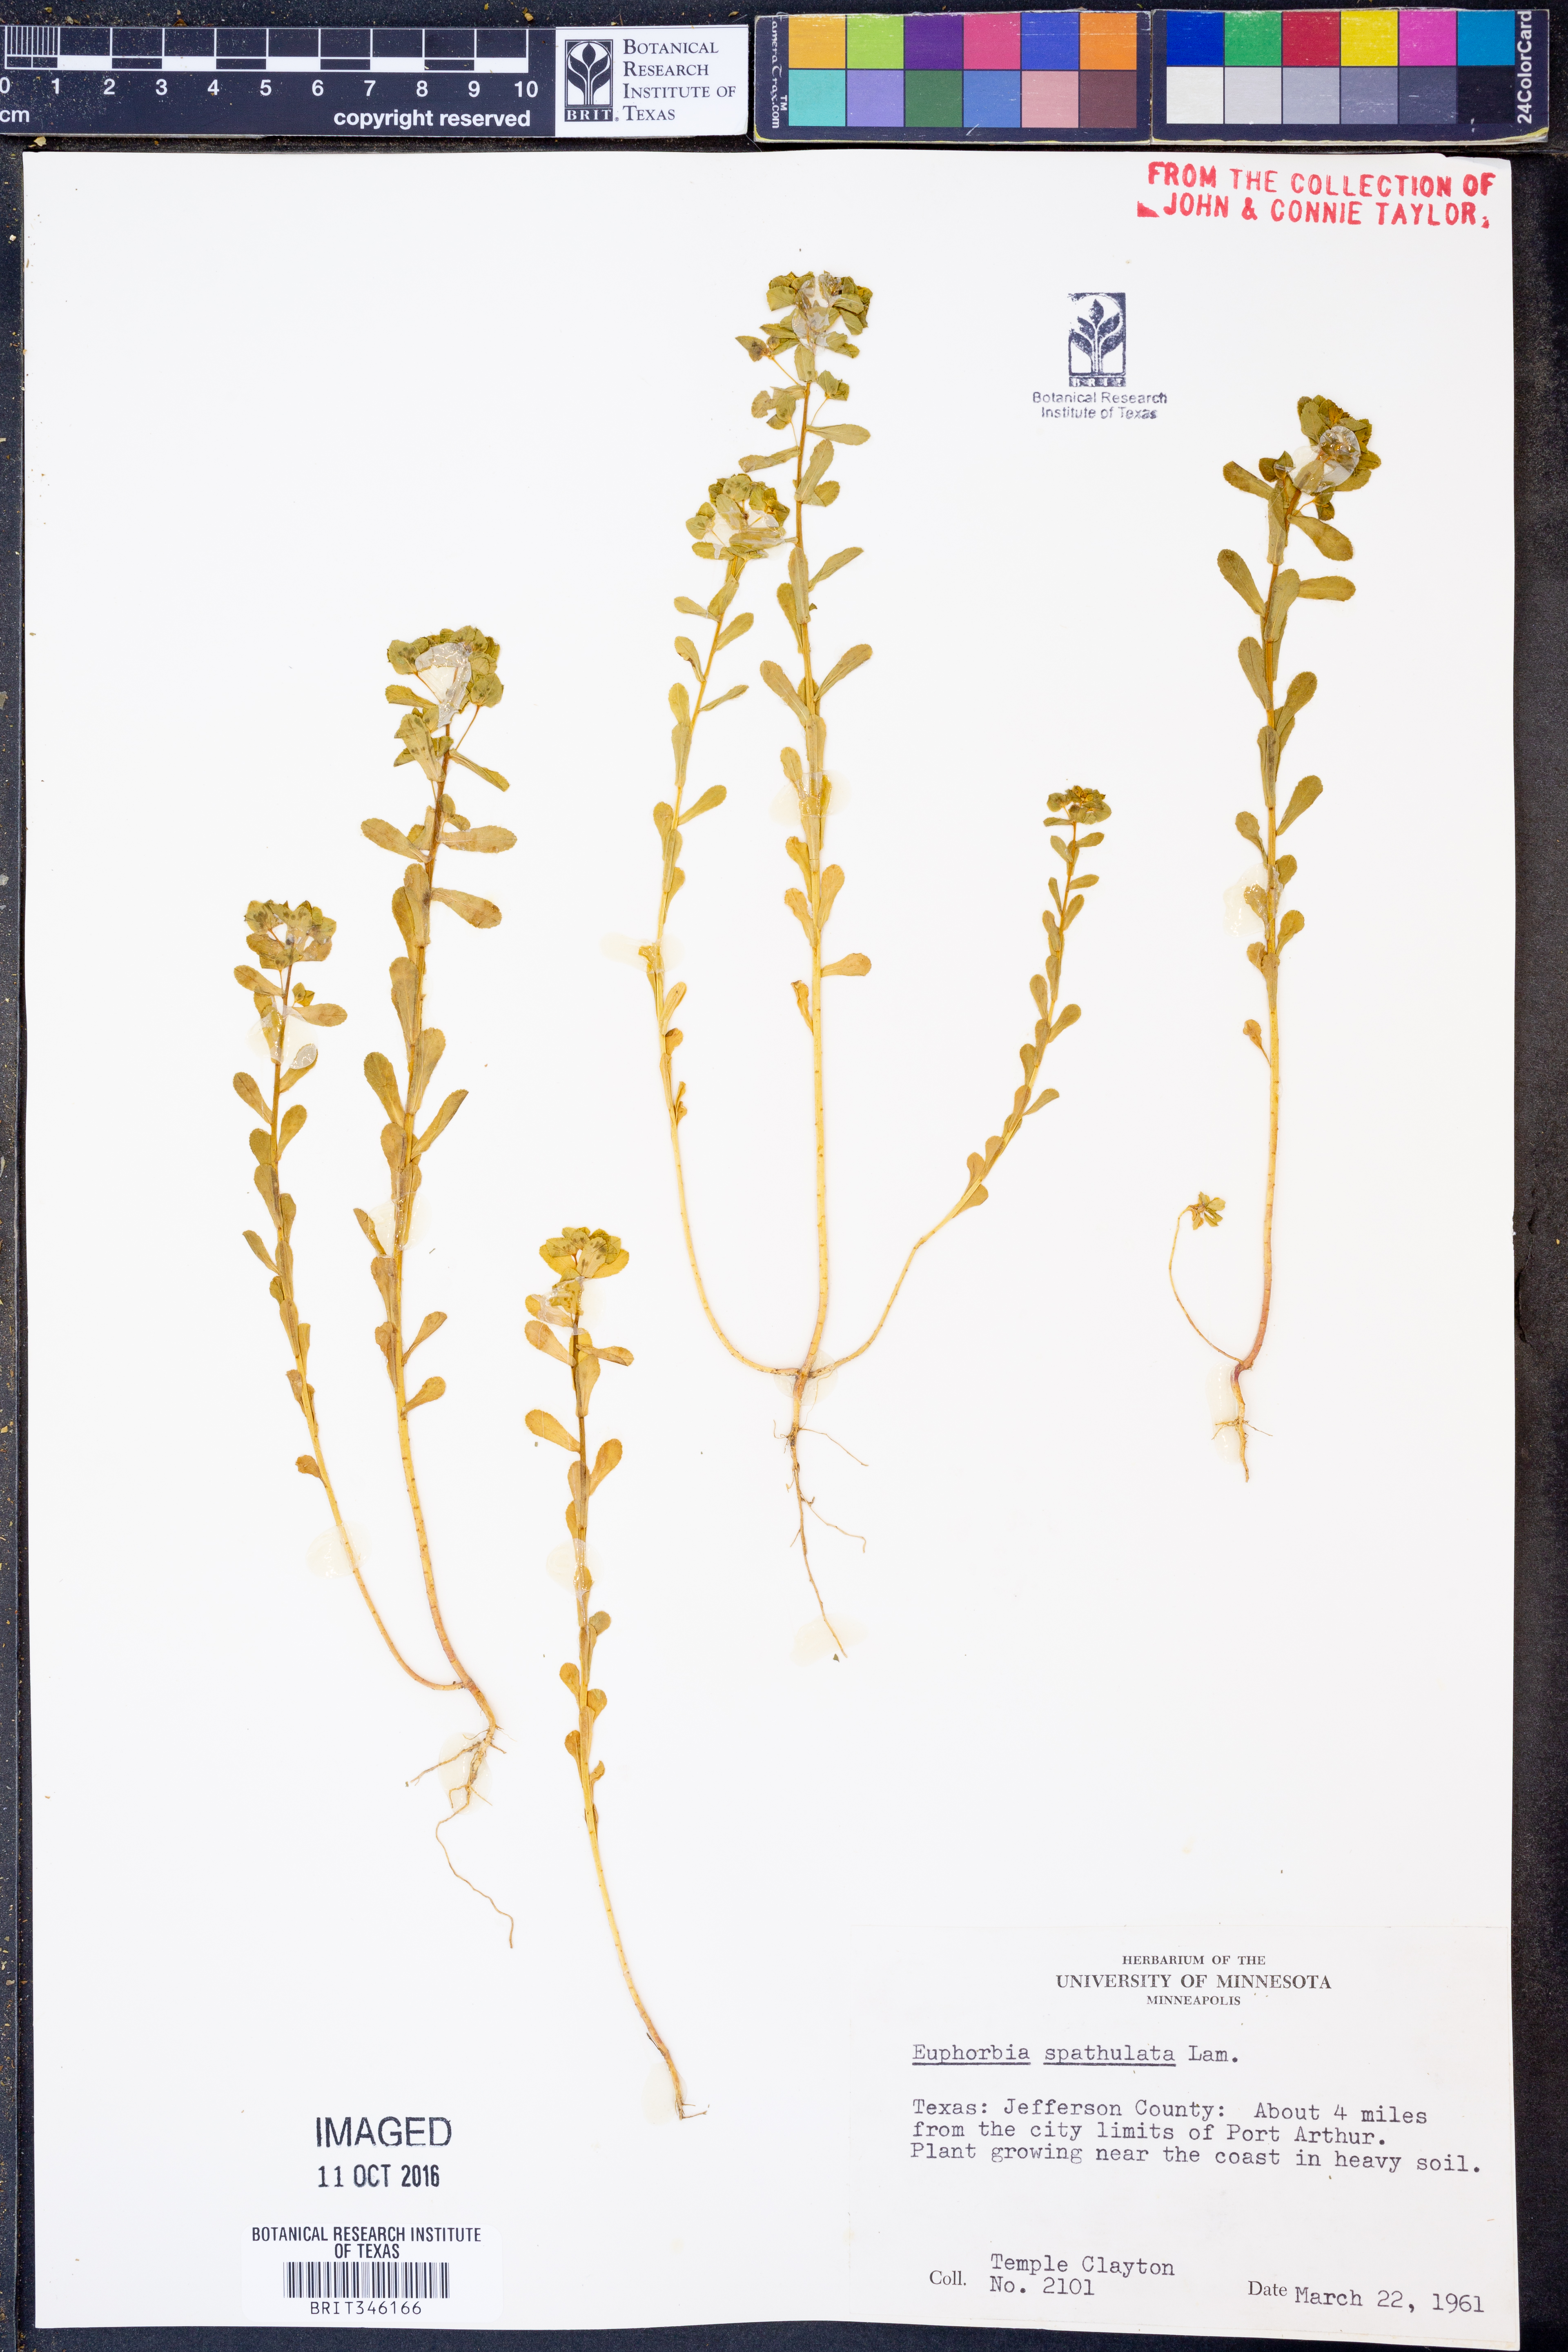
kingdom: Plantae
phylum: Tracheophyta
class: Magnoliopsida
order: Malpighiales
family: Euphorbiaceae
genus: Euphorbia
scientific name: Euphorbia spathulata
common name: Blunt spurge
